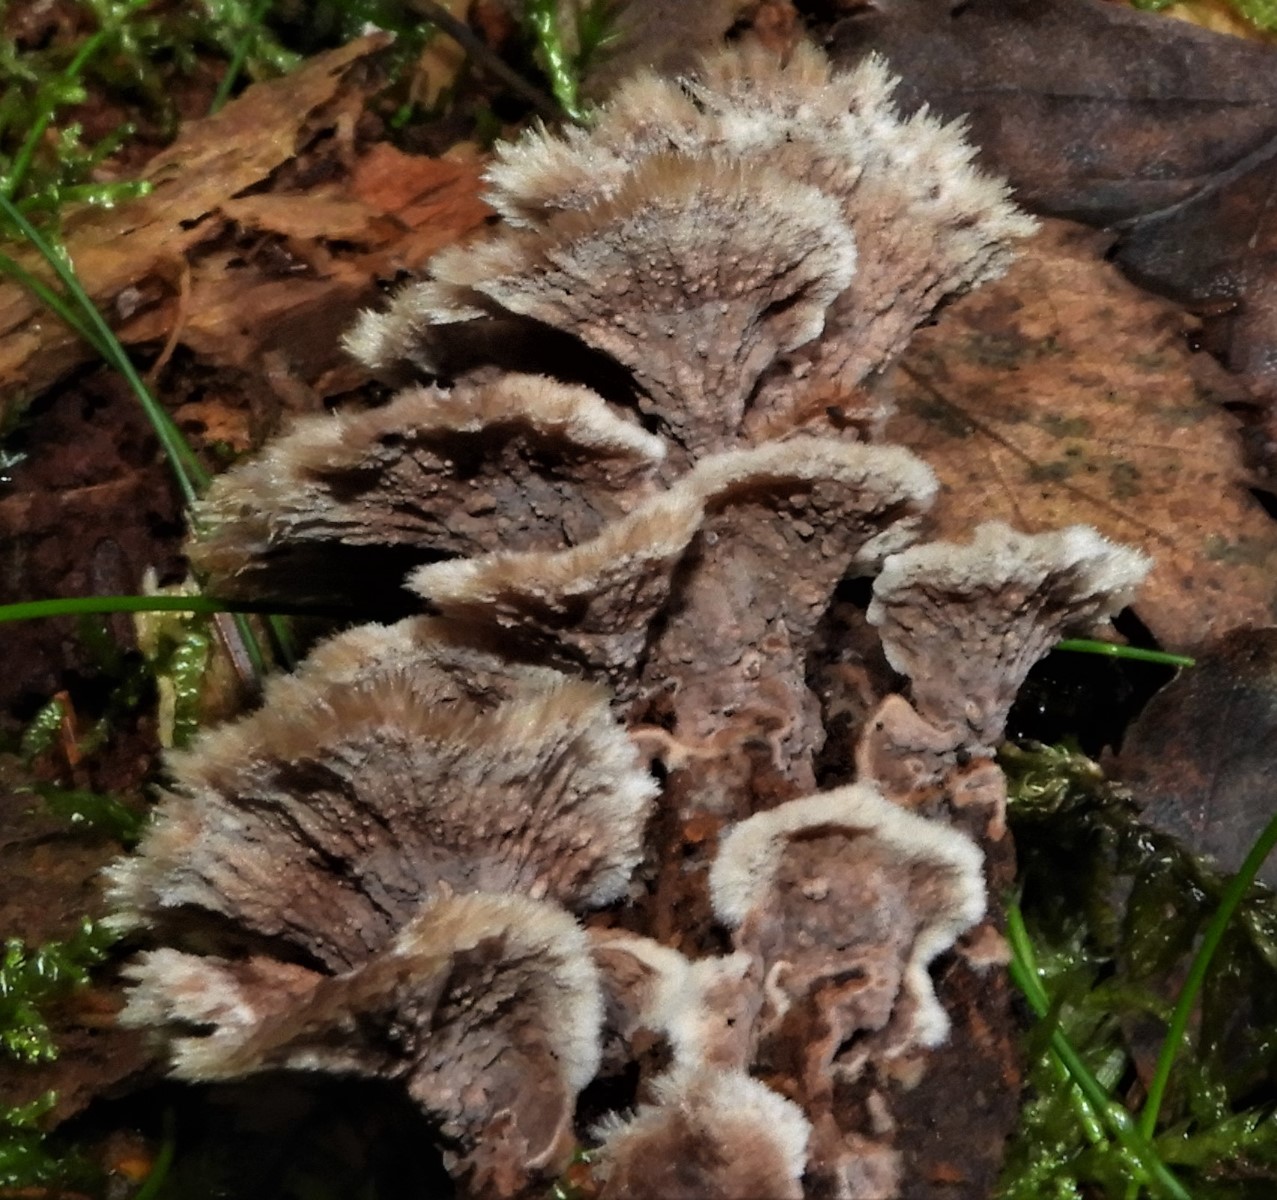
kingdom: Fungi
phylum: Basidiomycota
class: Agaricomycetes
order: Thelephorales
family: Thelephoraceae
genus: Thelephora
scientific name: Thelephora terrestris
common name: fliget frynsesvamp
